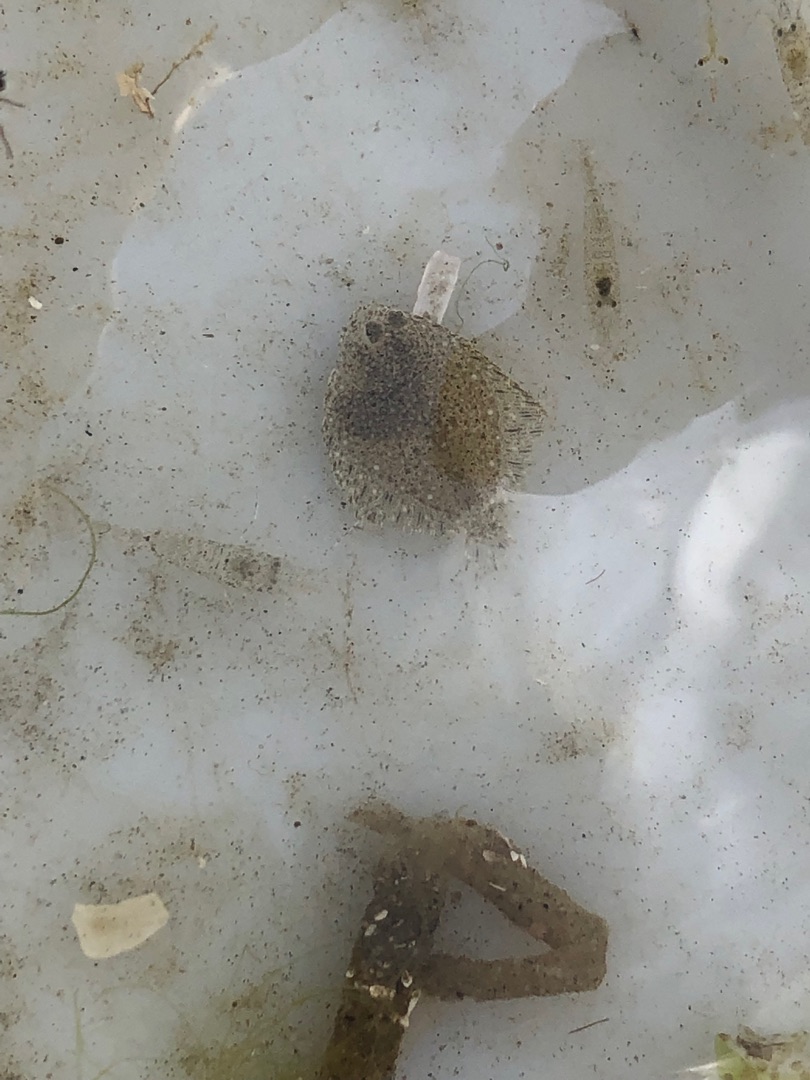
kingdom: Animalia
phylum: Chordata
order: Pleuronectiformes
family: Scophthalmidae
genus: Scophthalmus
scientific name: Scophthalmus
